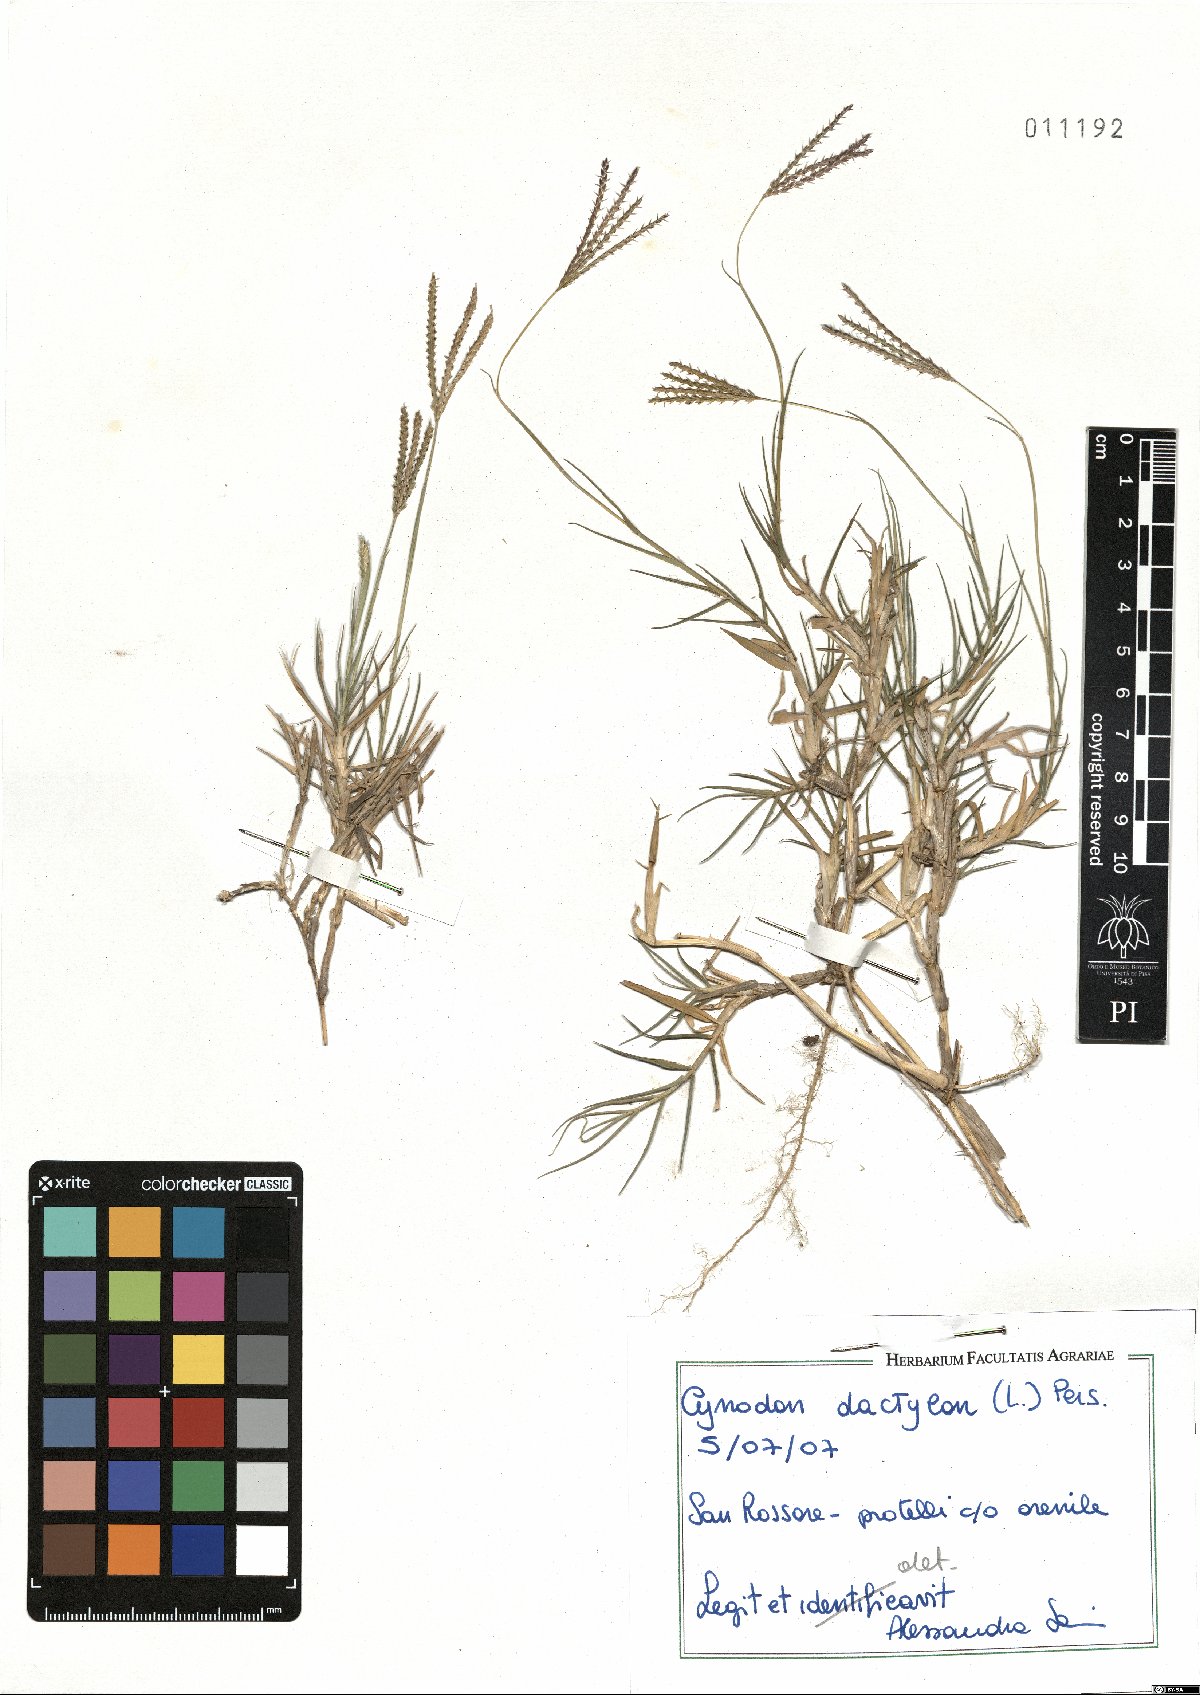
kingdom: Plantae
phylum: Tracheophyta
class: Liliopsida
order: Poales
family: Poaceae
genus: Cynodon
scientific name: Cynodon dactylon
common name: Bermuda grass
